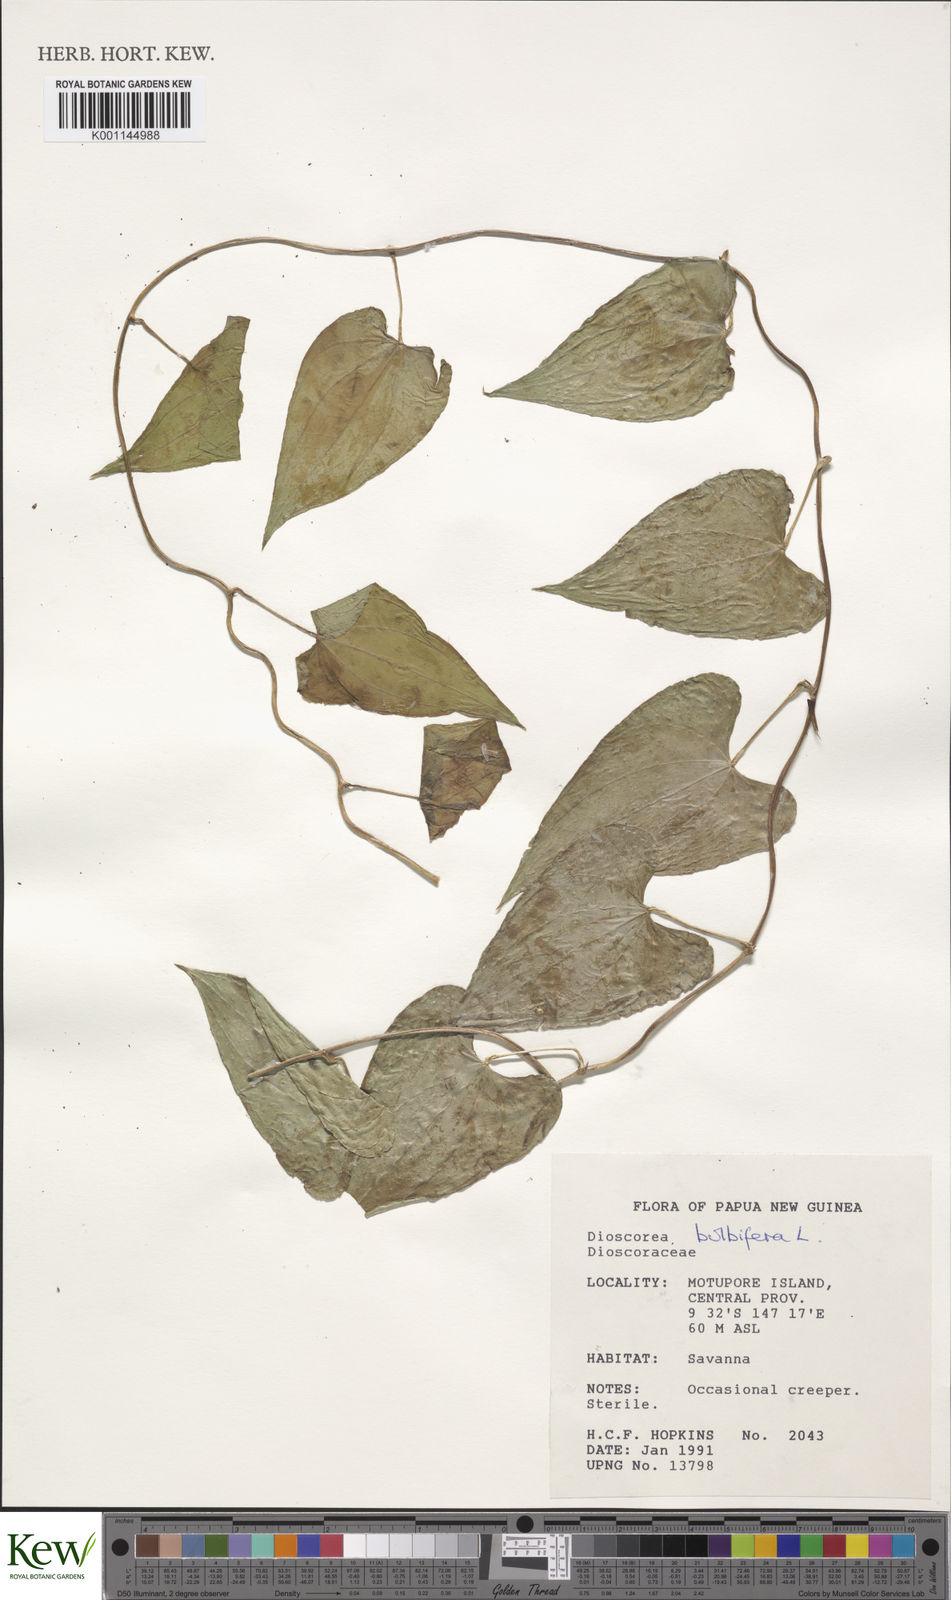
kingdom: Plantae
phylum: Tracheophyta
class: Liliopsida
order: Dioscoreales
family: Dioscoreaceae
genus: Dioscorea
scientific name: Dioscorea bulbifera
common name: Air yam
